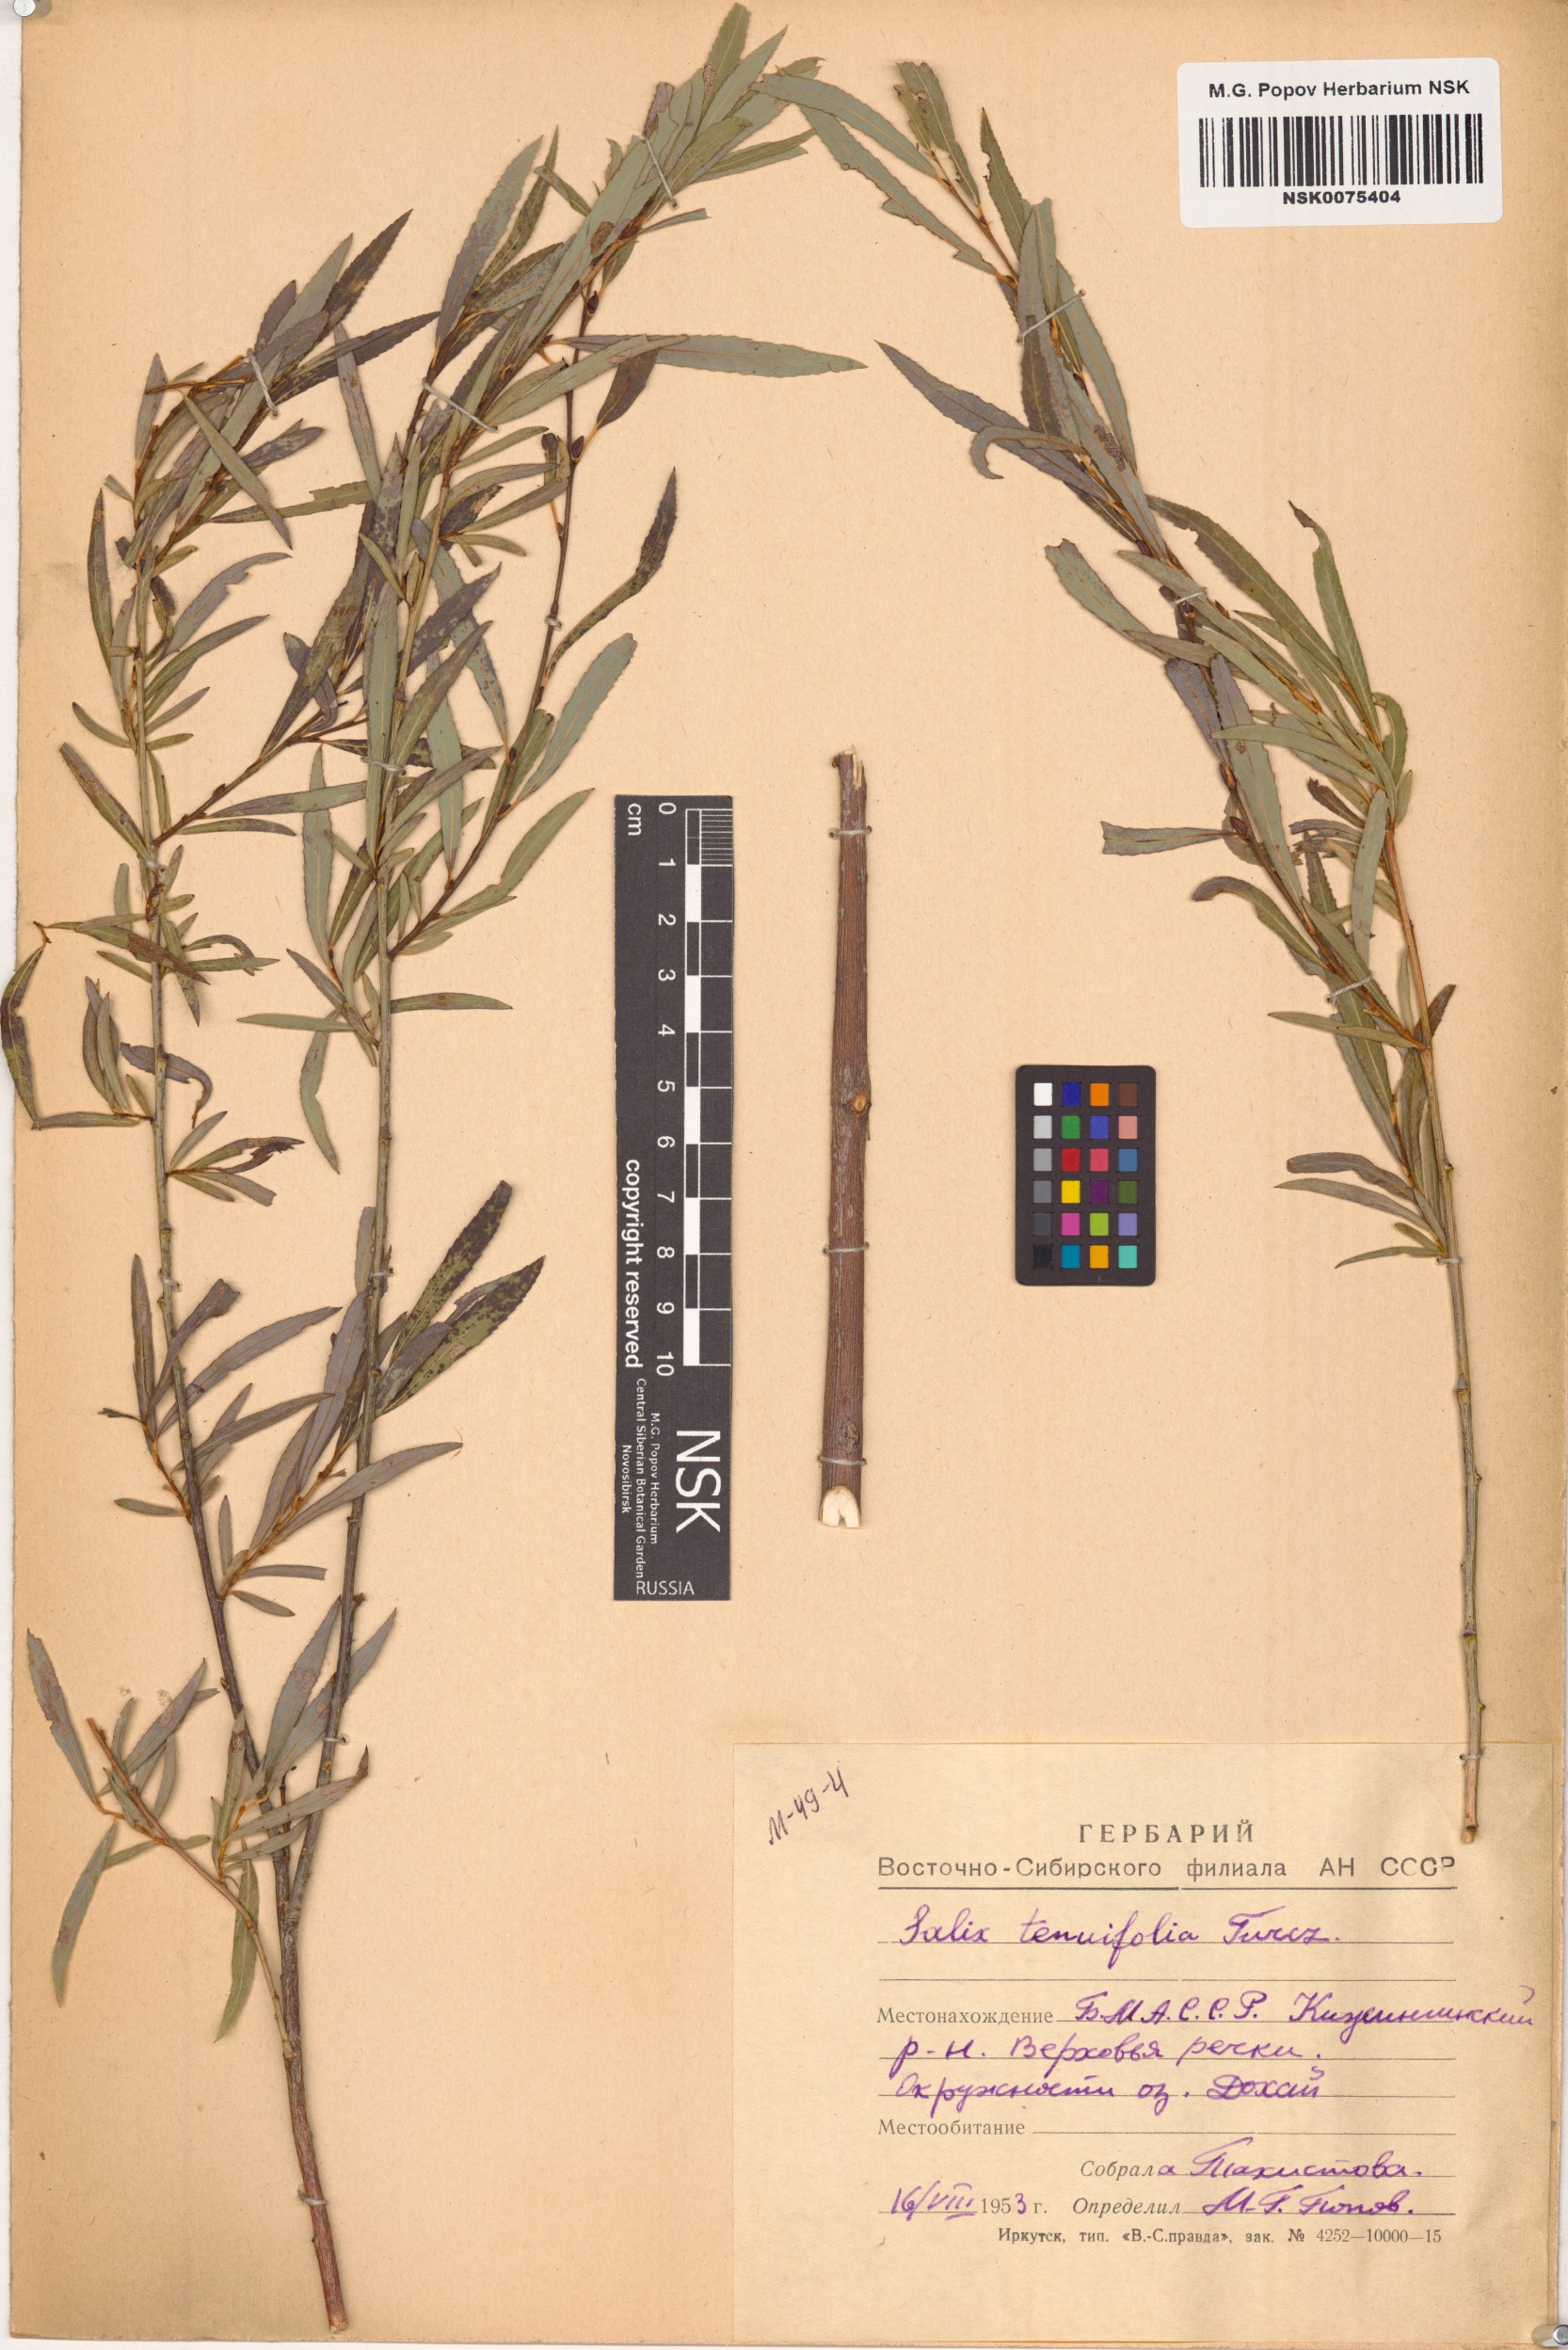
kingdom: Plantae
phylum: Tracheophyta
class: Magnoliopsida
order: Malpighiales
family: Salicaceae
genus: Salix
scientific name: Salix
